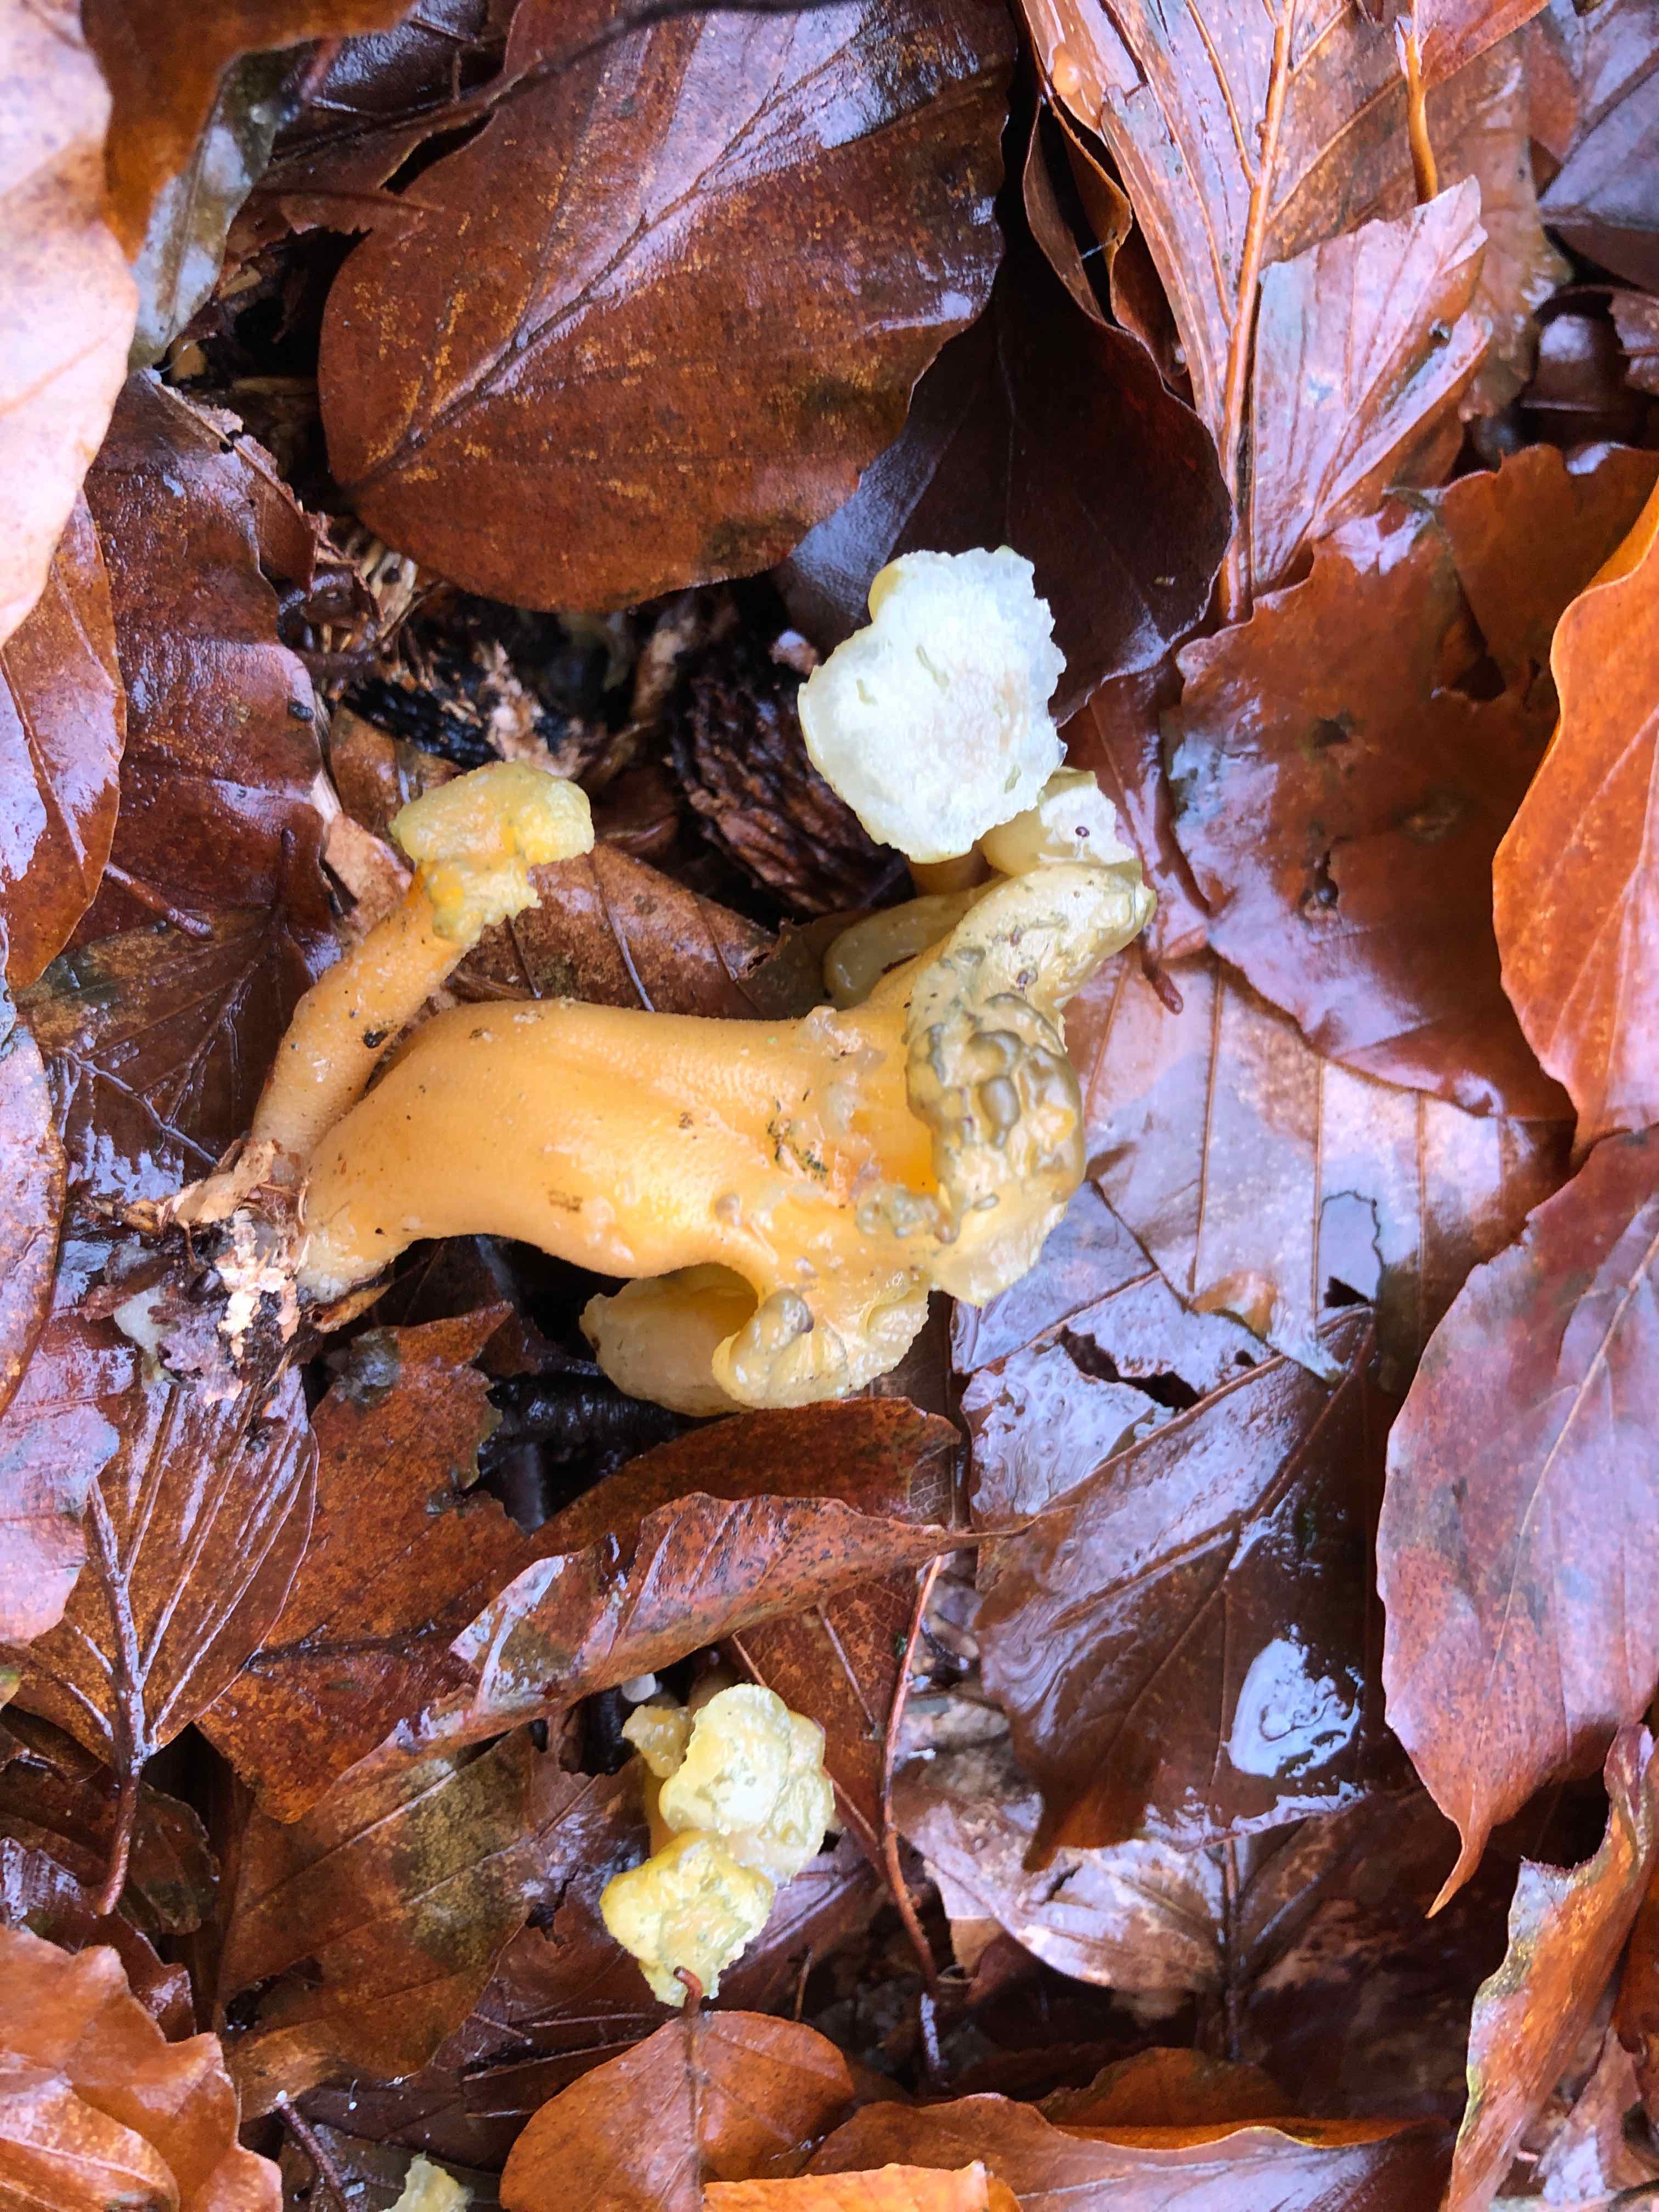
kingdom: Fungi
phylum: Ascomycota
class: Leotiomycetes
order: Leotiales
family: Leotiaceae
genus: Leotia
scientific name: Leotia lubrica
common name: ravsvamp
